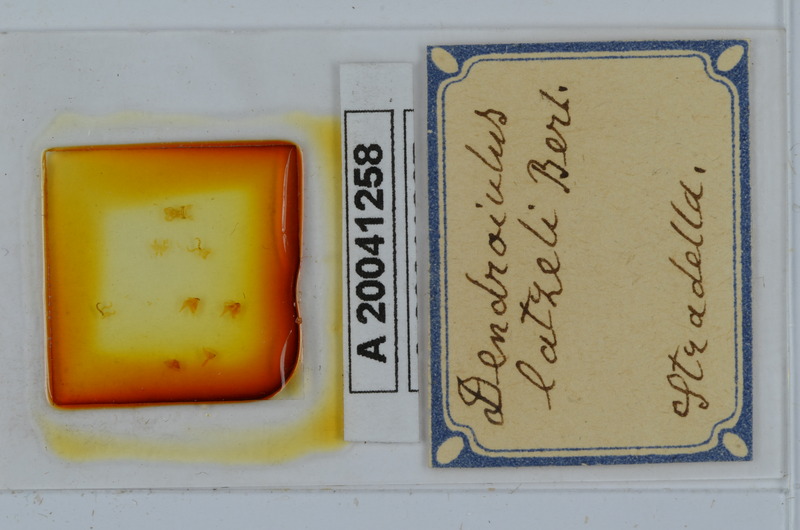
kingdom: Animalia
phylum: Arthropoda
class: Diplopoda
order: Julida
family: Julidae
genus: Cylindroiulus
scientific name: Cylindroiulus latzeli
